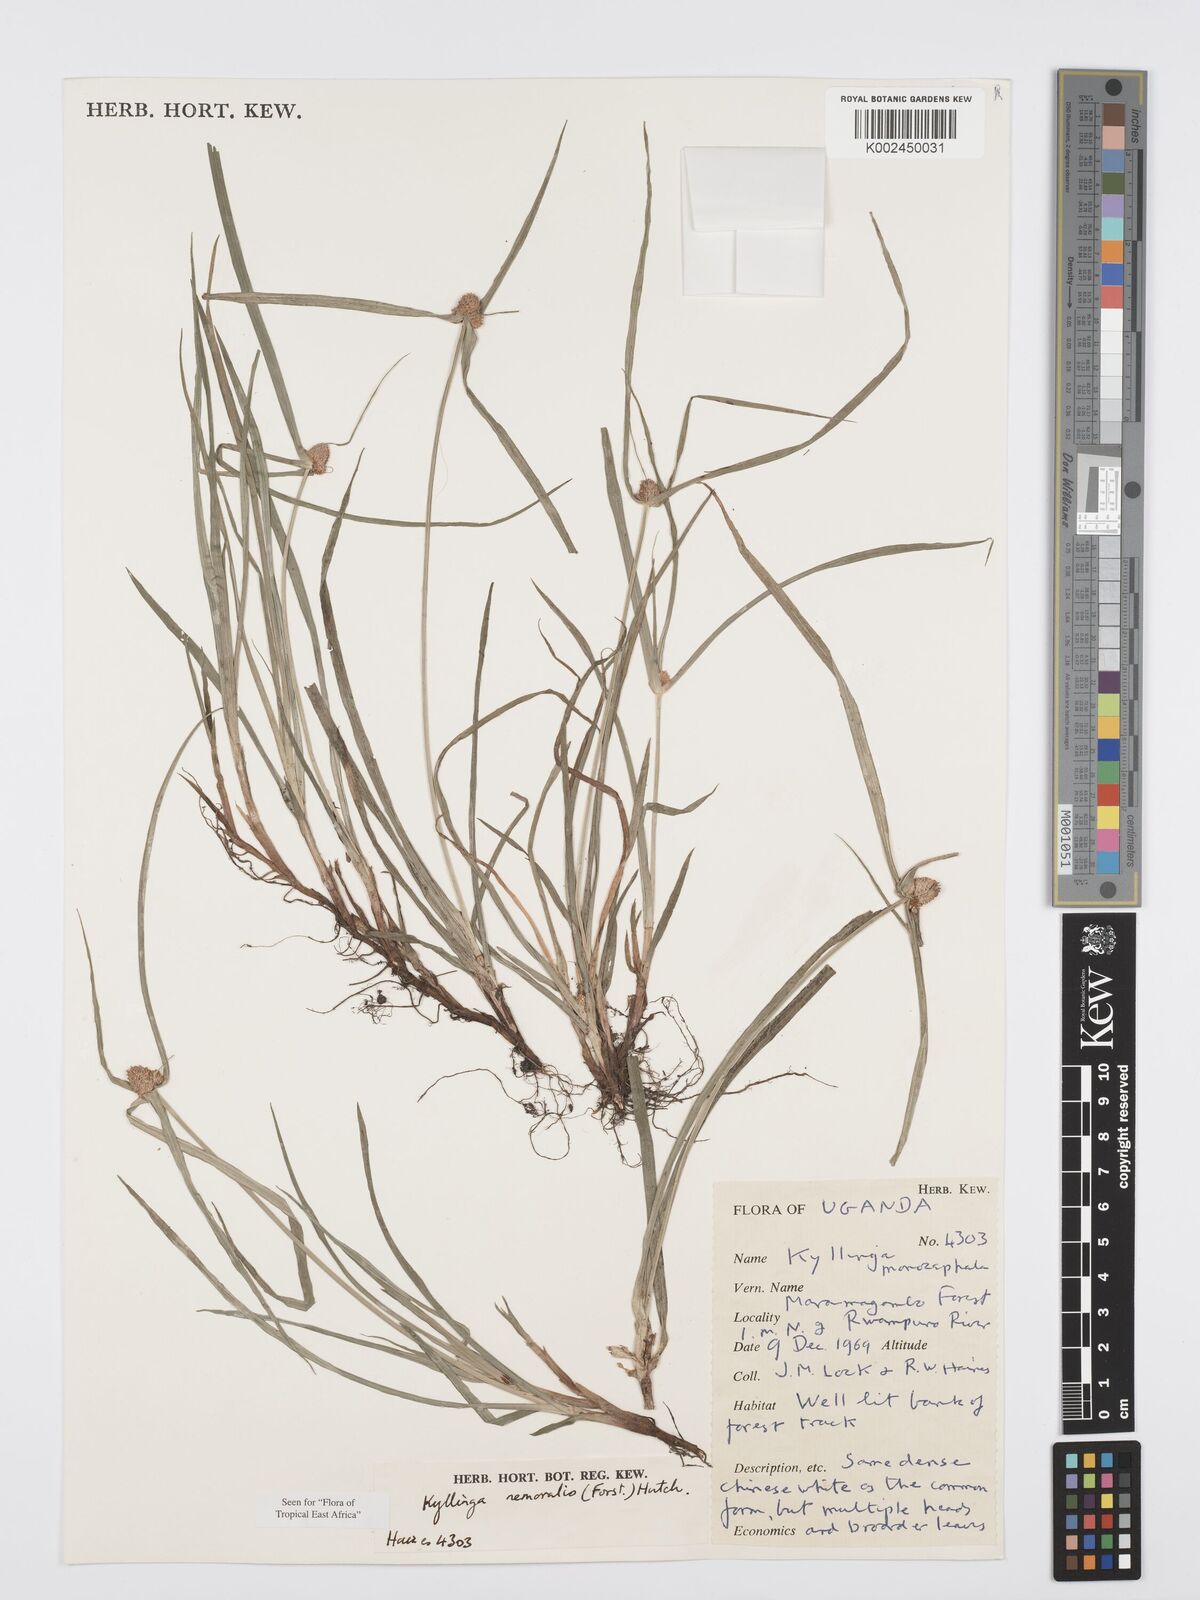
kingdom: Plantae
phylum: Tracheophyta
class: Liliopsida
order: Poales
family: Cyperaceae
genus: Cyperus
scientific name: Cyperus nemoralis
